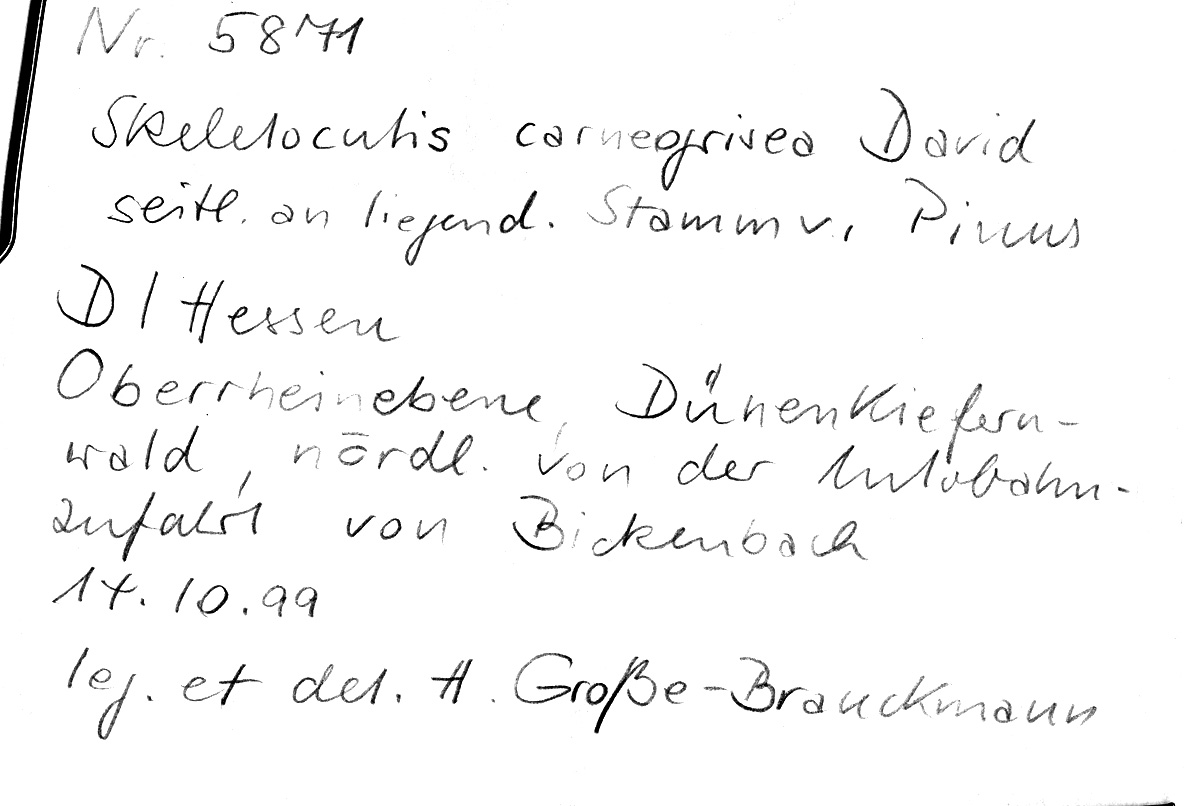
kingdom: Plantae
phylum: Tracheophyta
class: Pinopsida
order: Pinales
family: Pinaceae
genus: Pinus
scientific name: Pinus
